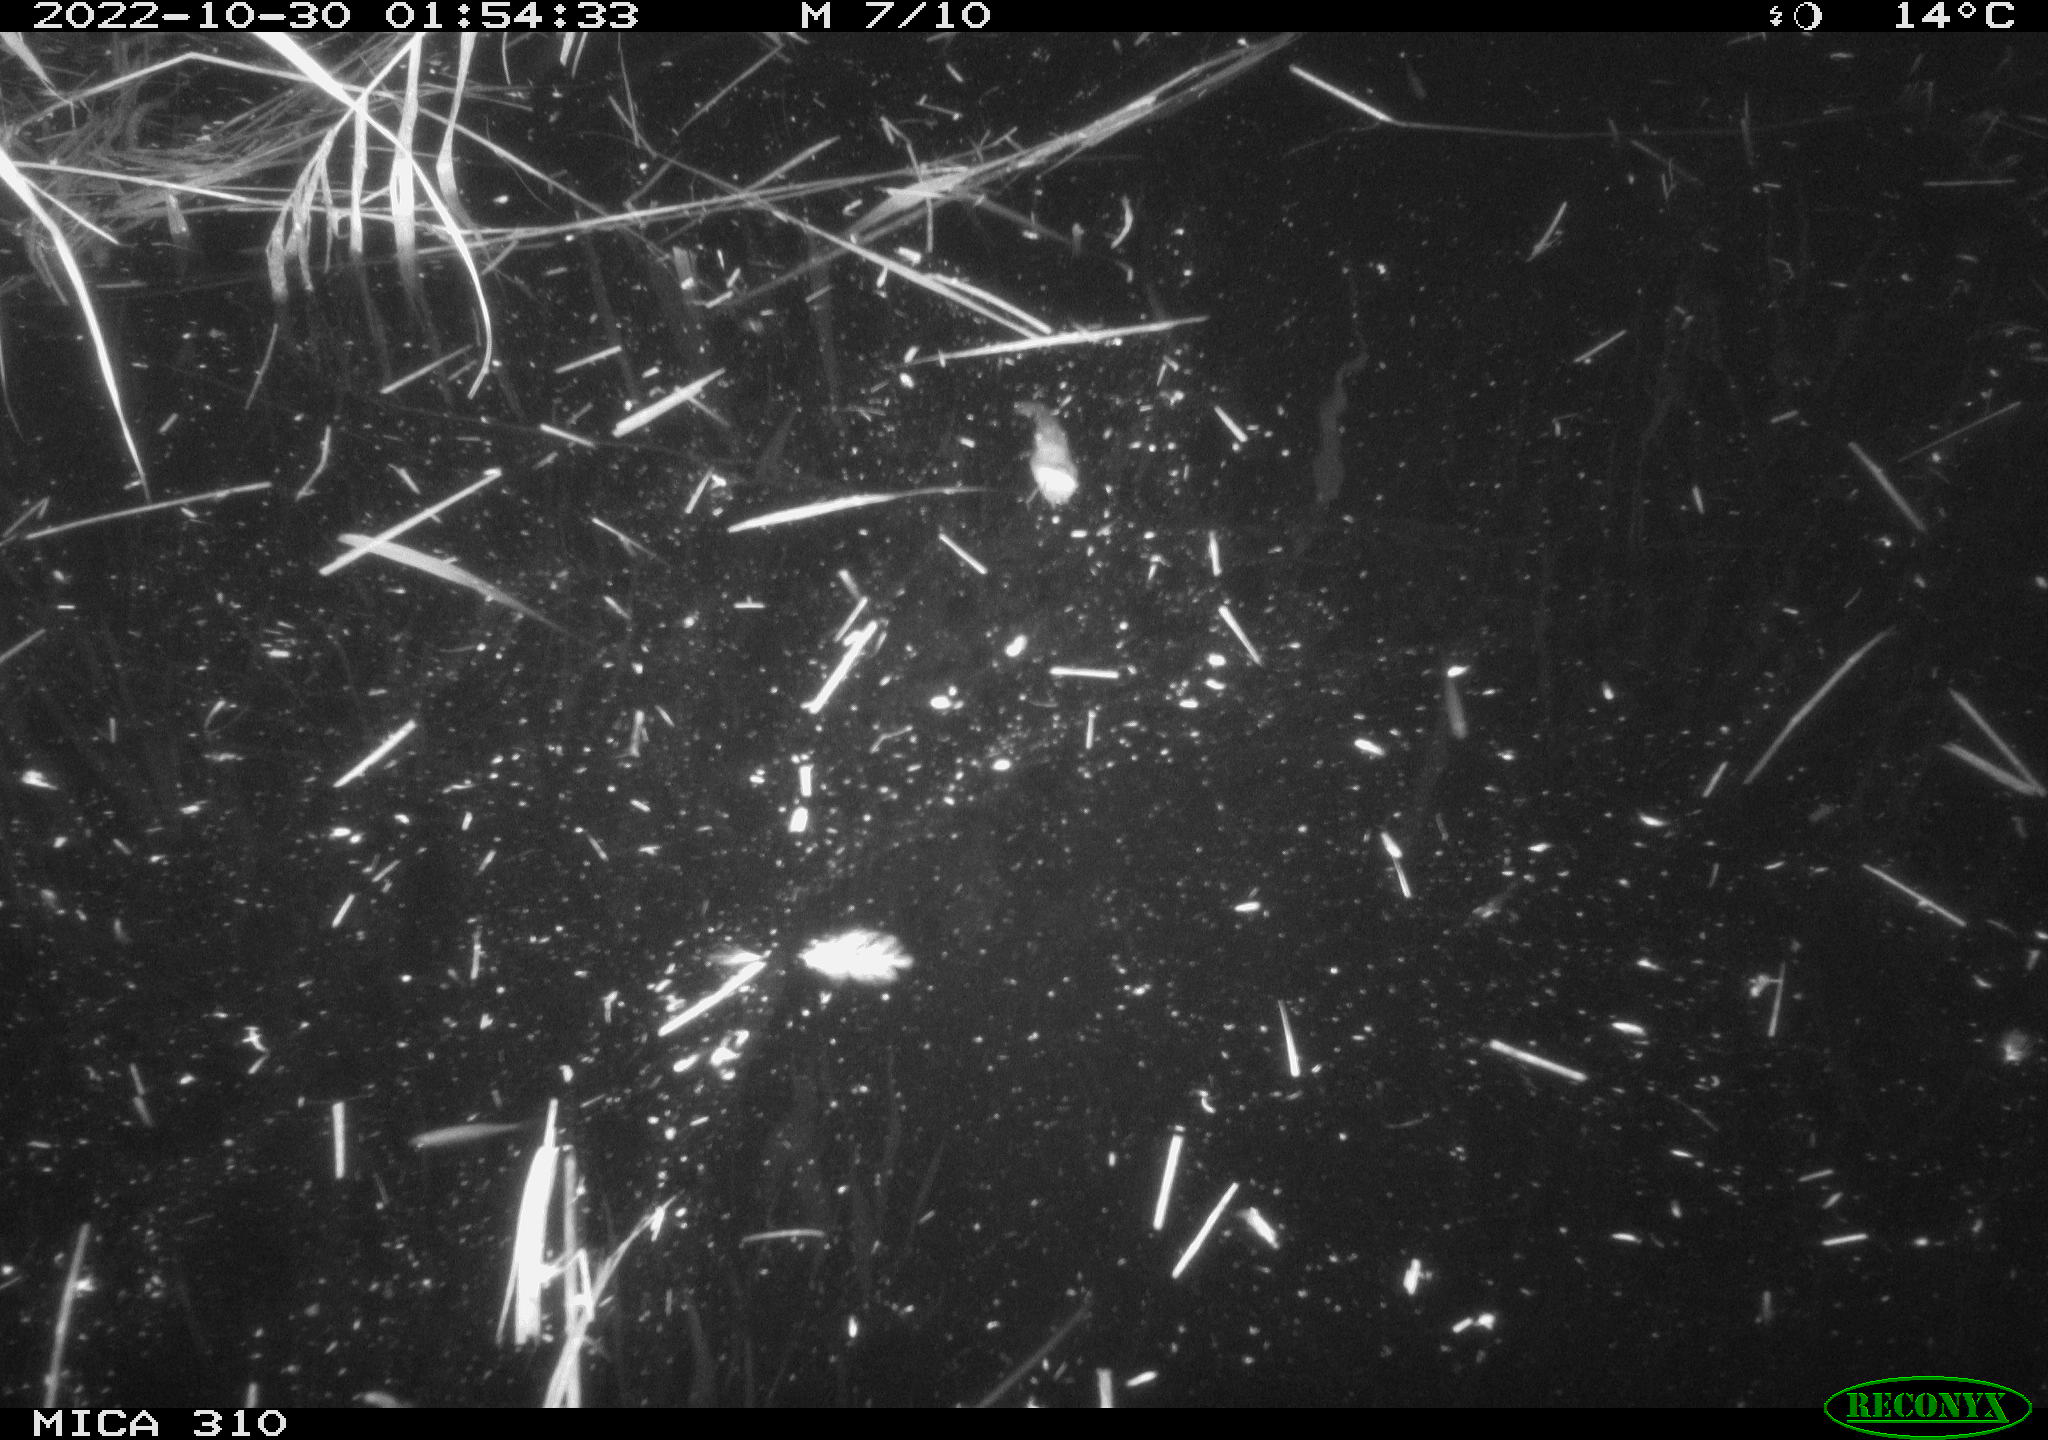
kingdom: Animalia
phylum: Chordata
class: Mammalia
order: Rodentia
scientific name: Rodentia
